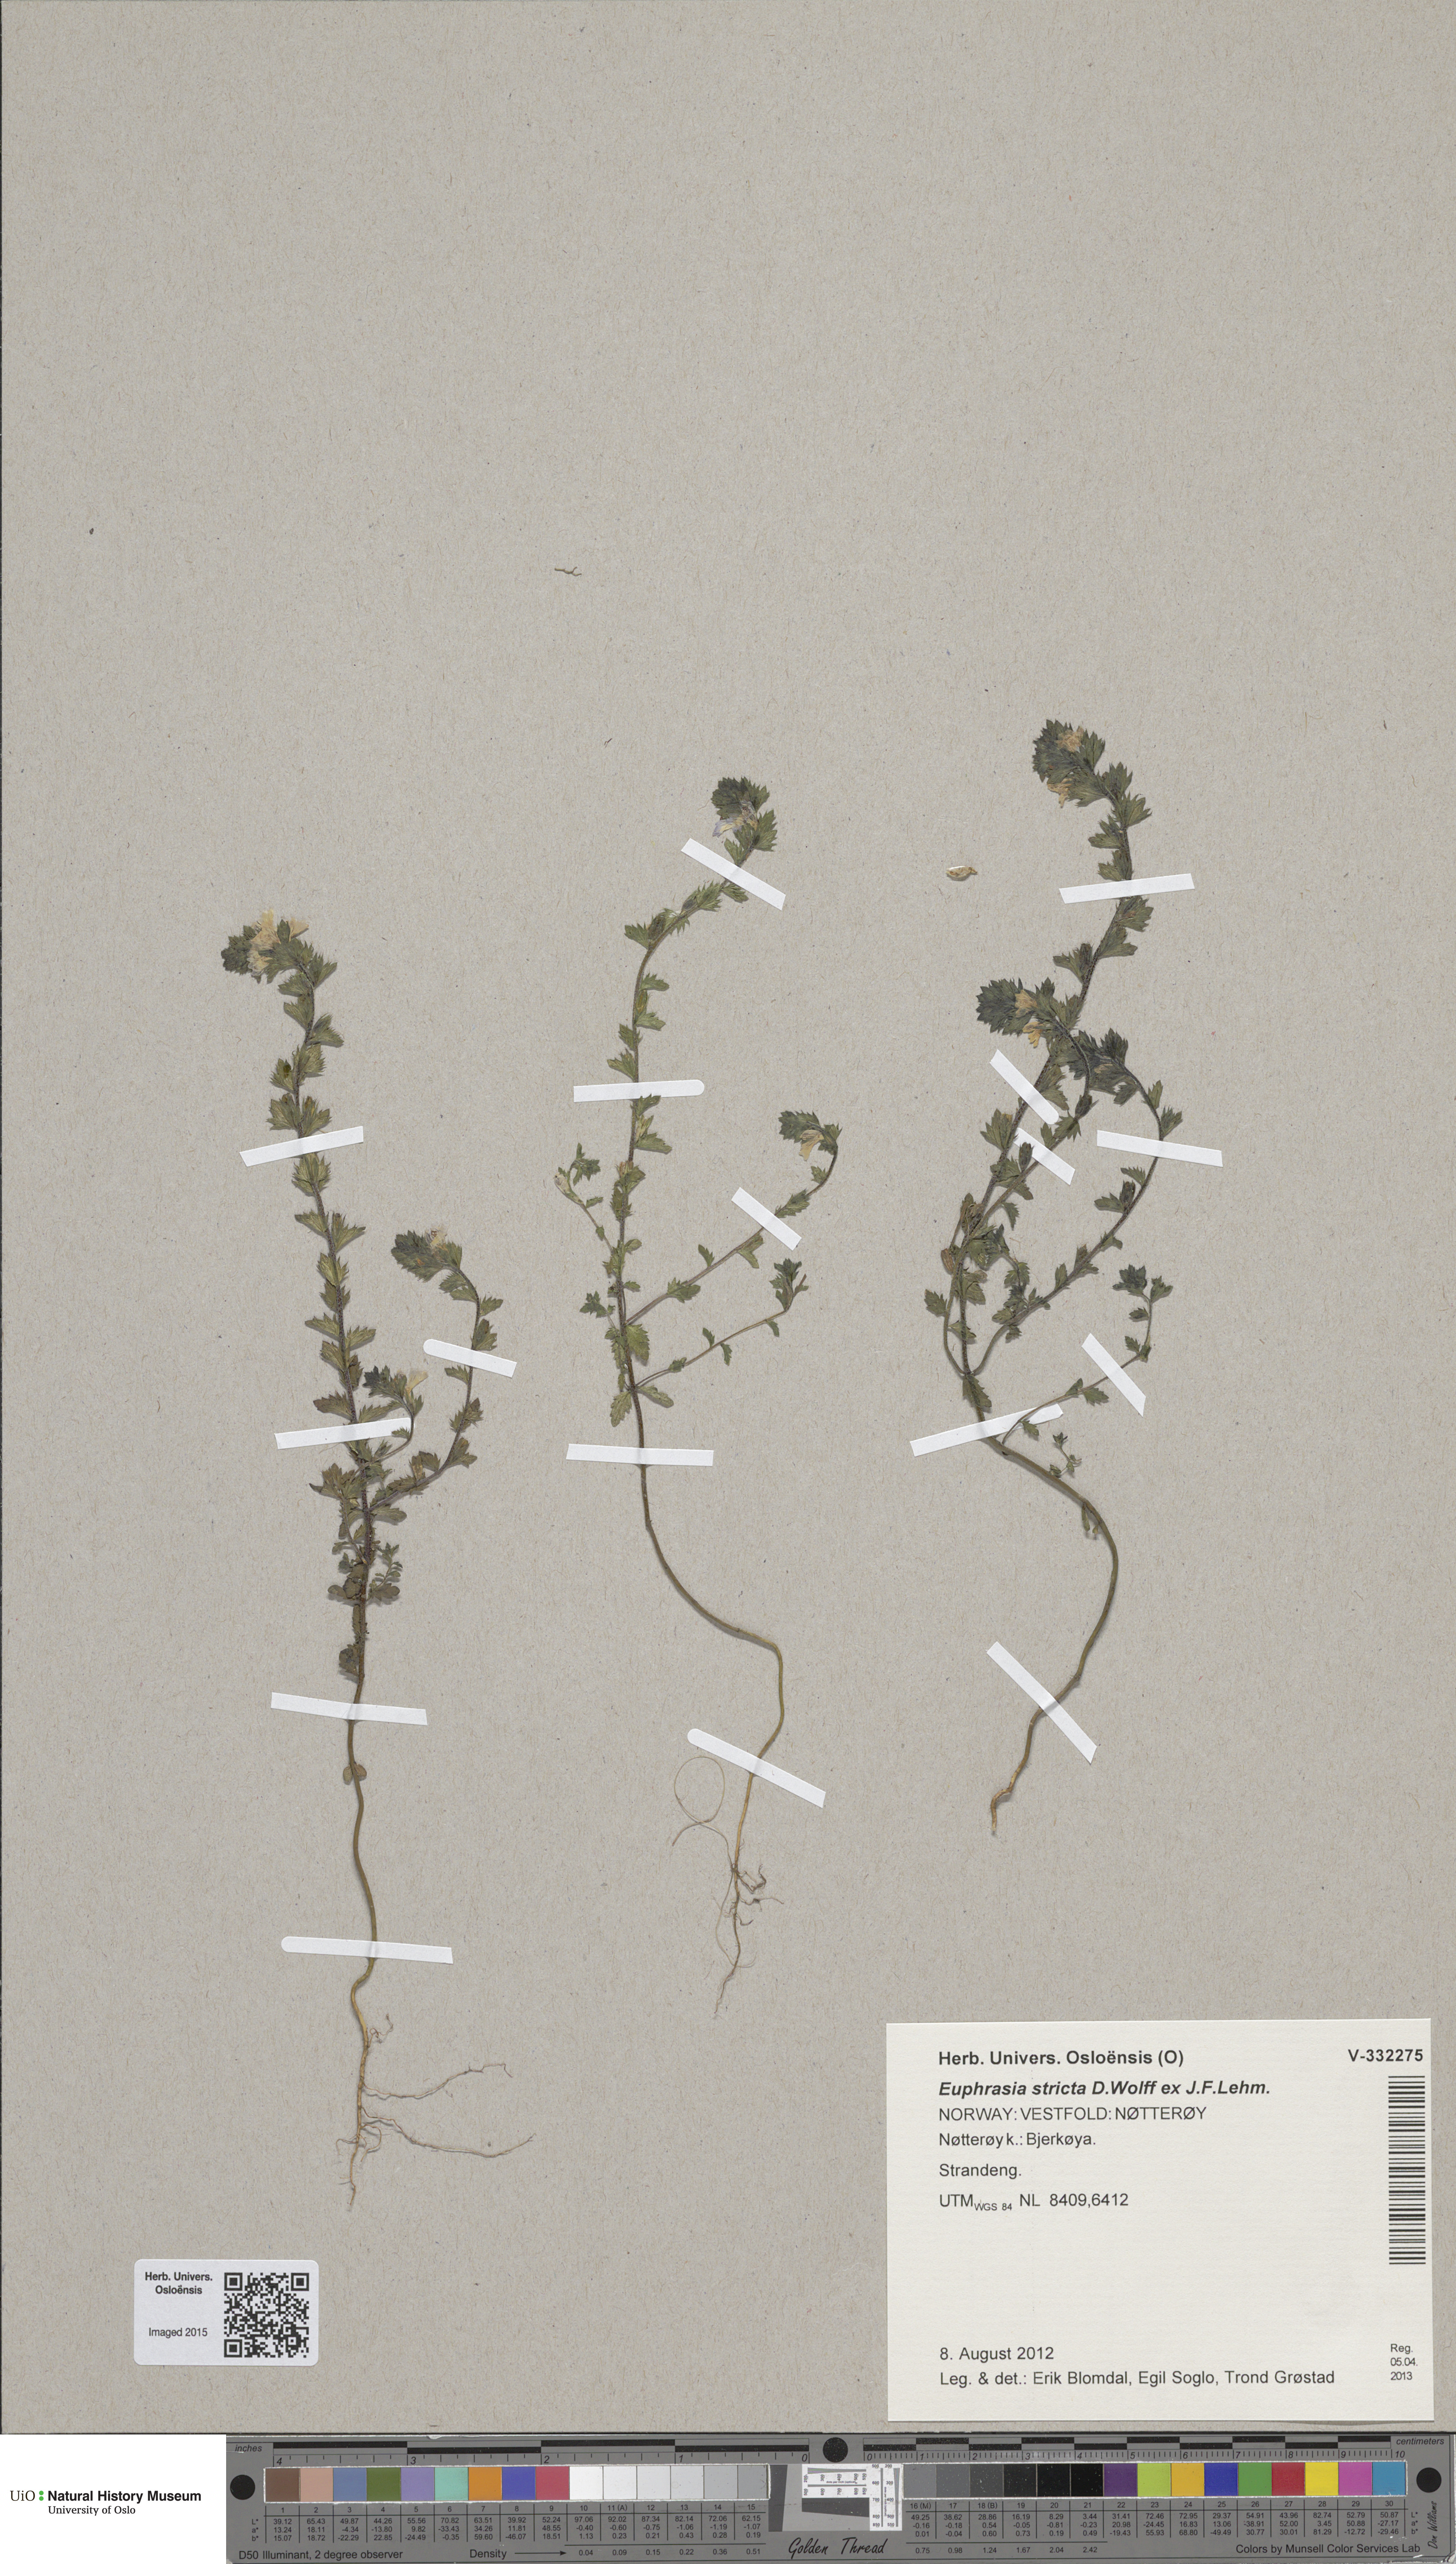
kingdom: Plantae
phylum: Tracheophyta
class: Magnoliopsida
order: Lamiales
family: Orobanchaceae
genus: Euphrasia
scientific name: Euphrasia stricta
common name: Drug eyebright
